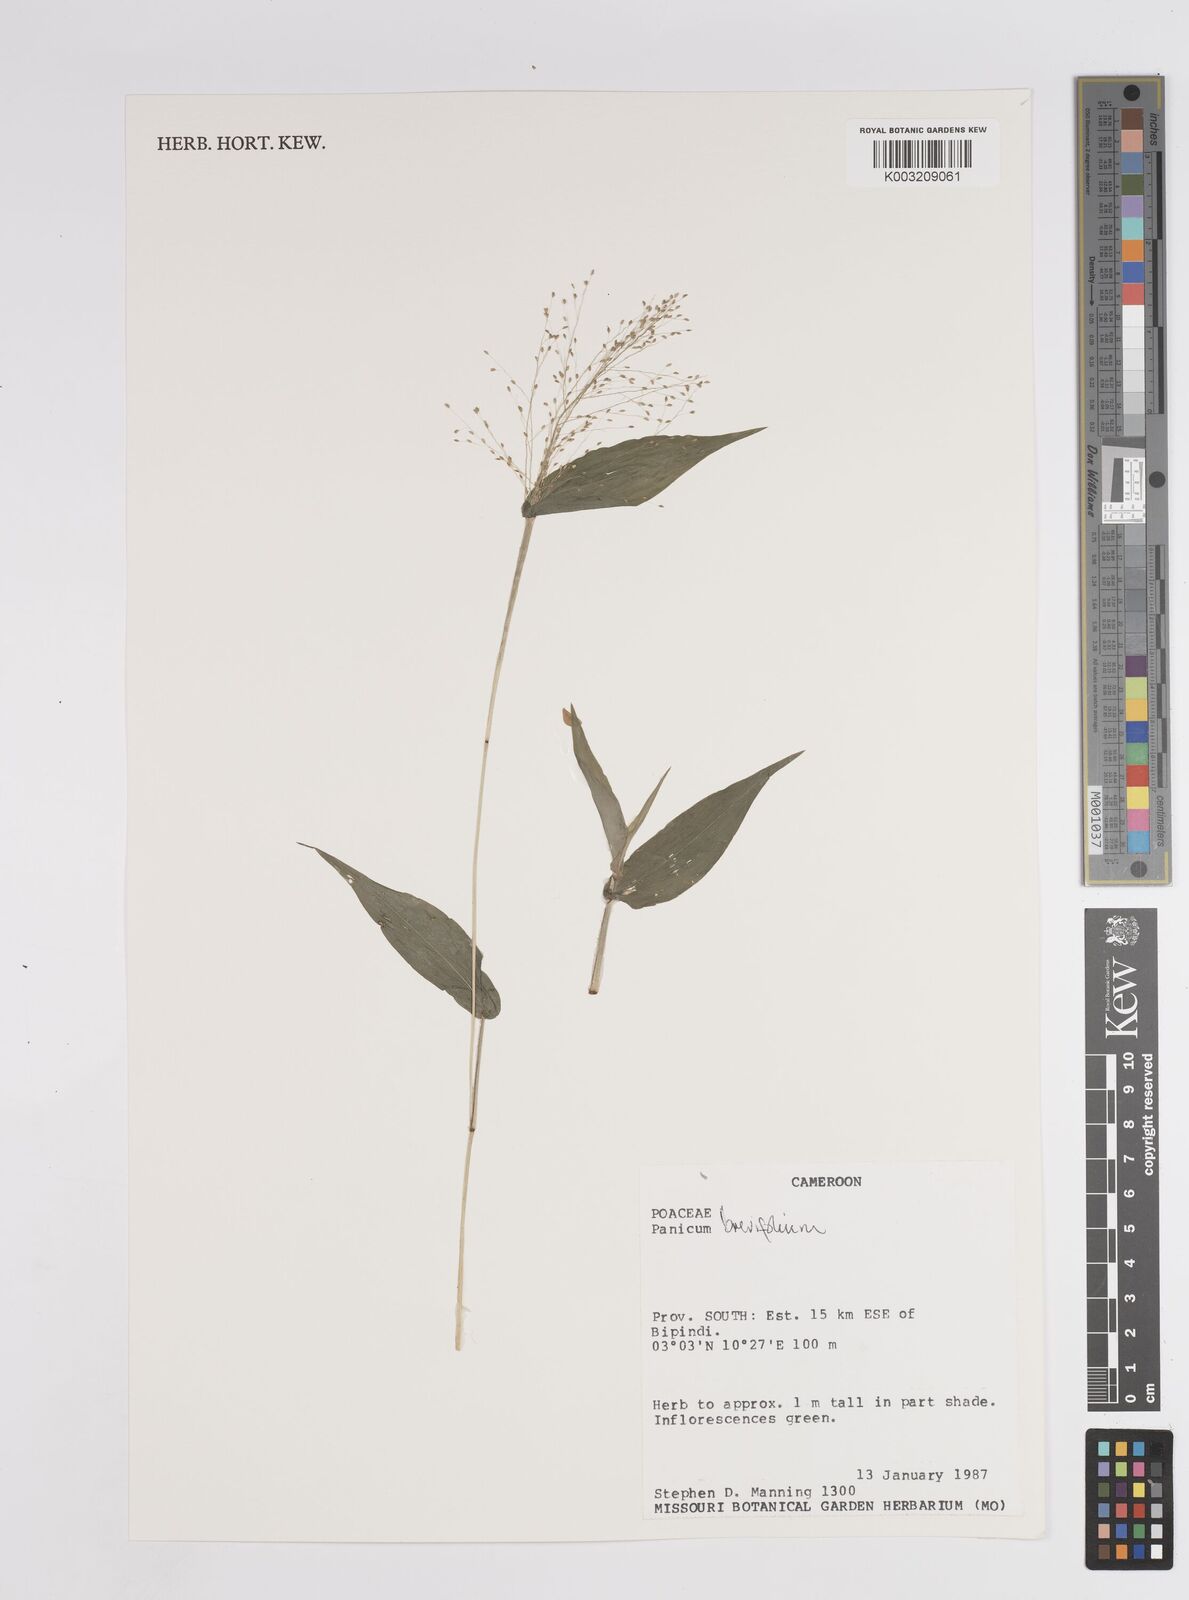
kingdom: Plantae
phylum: Tracheophyta
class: Liliopsida
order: Poales
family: Poaceae
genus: Panicum
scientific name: Panicum brevifolium
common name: Shortleaf panic grass
